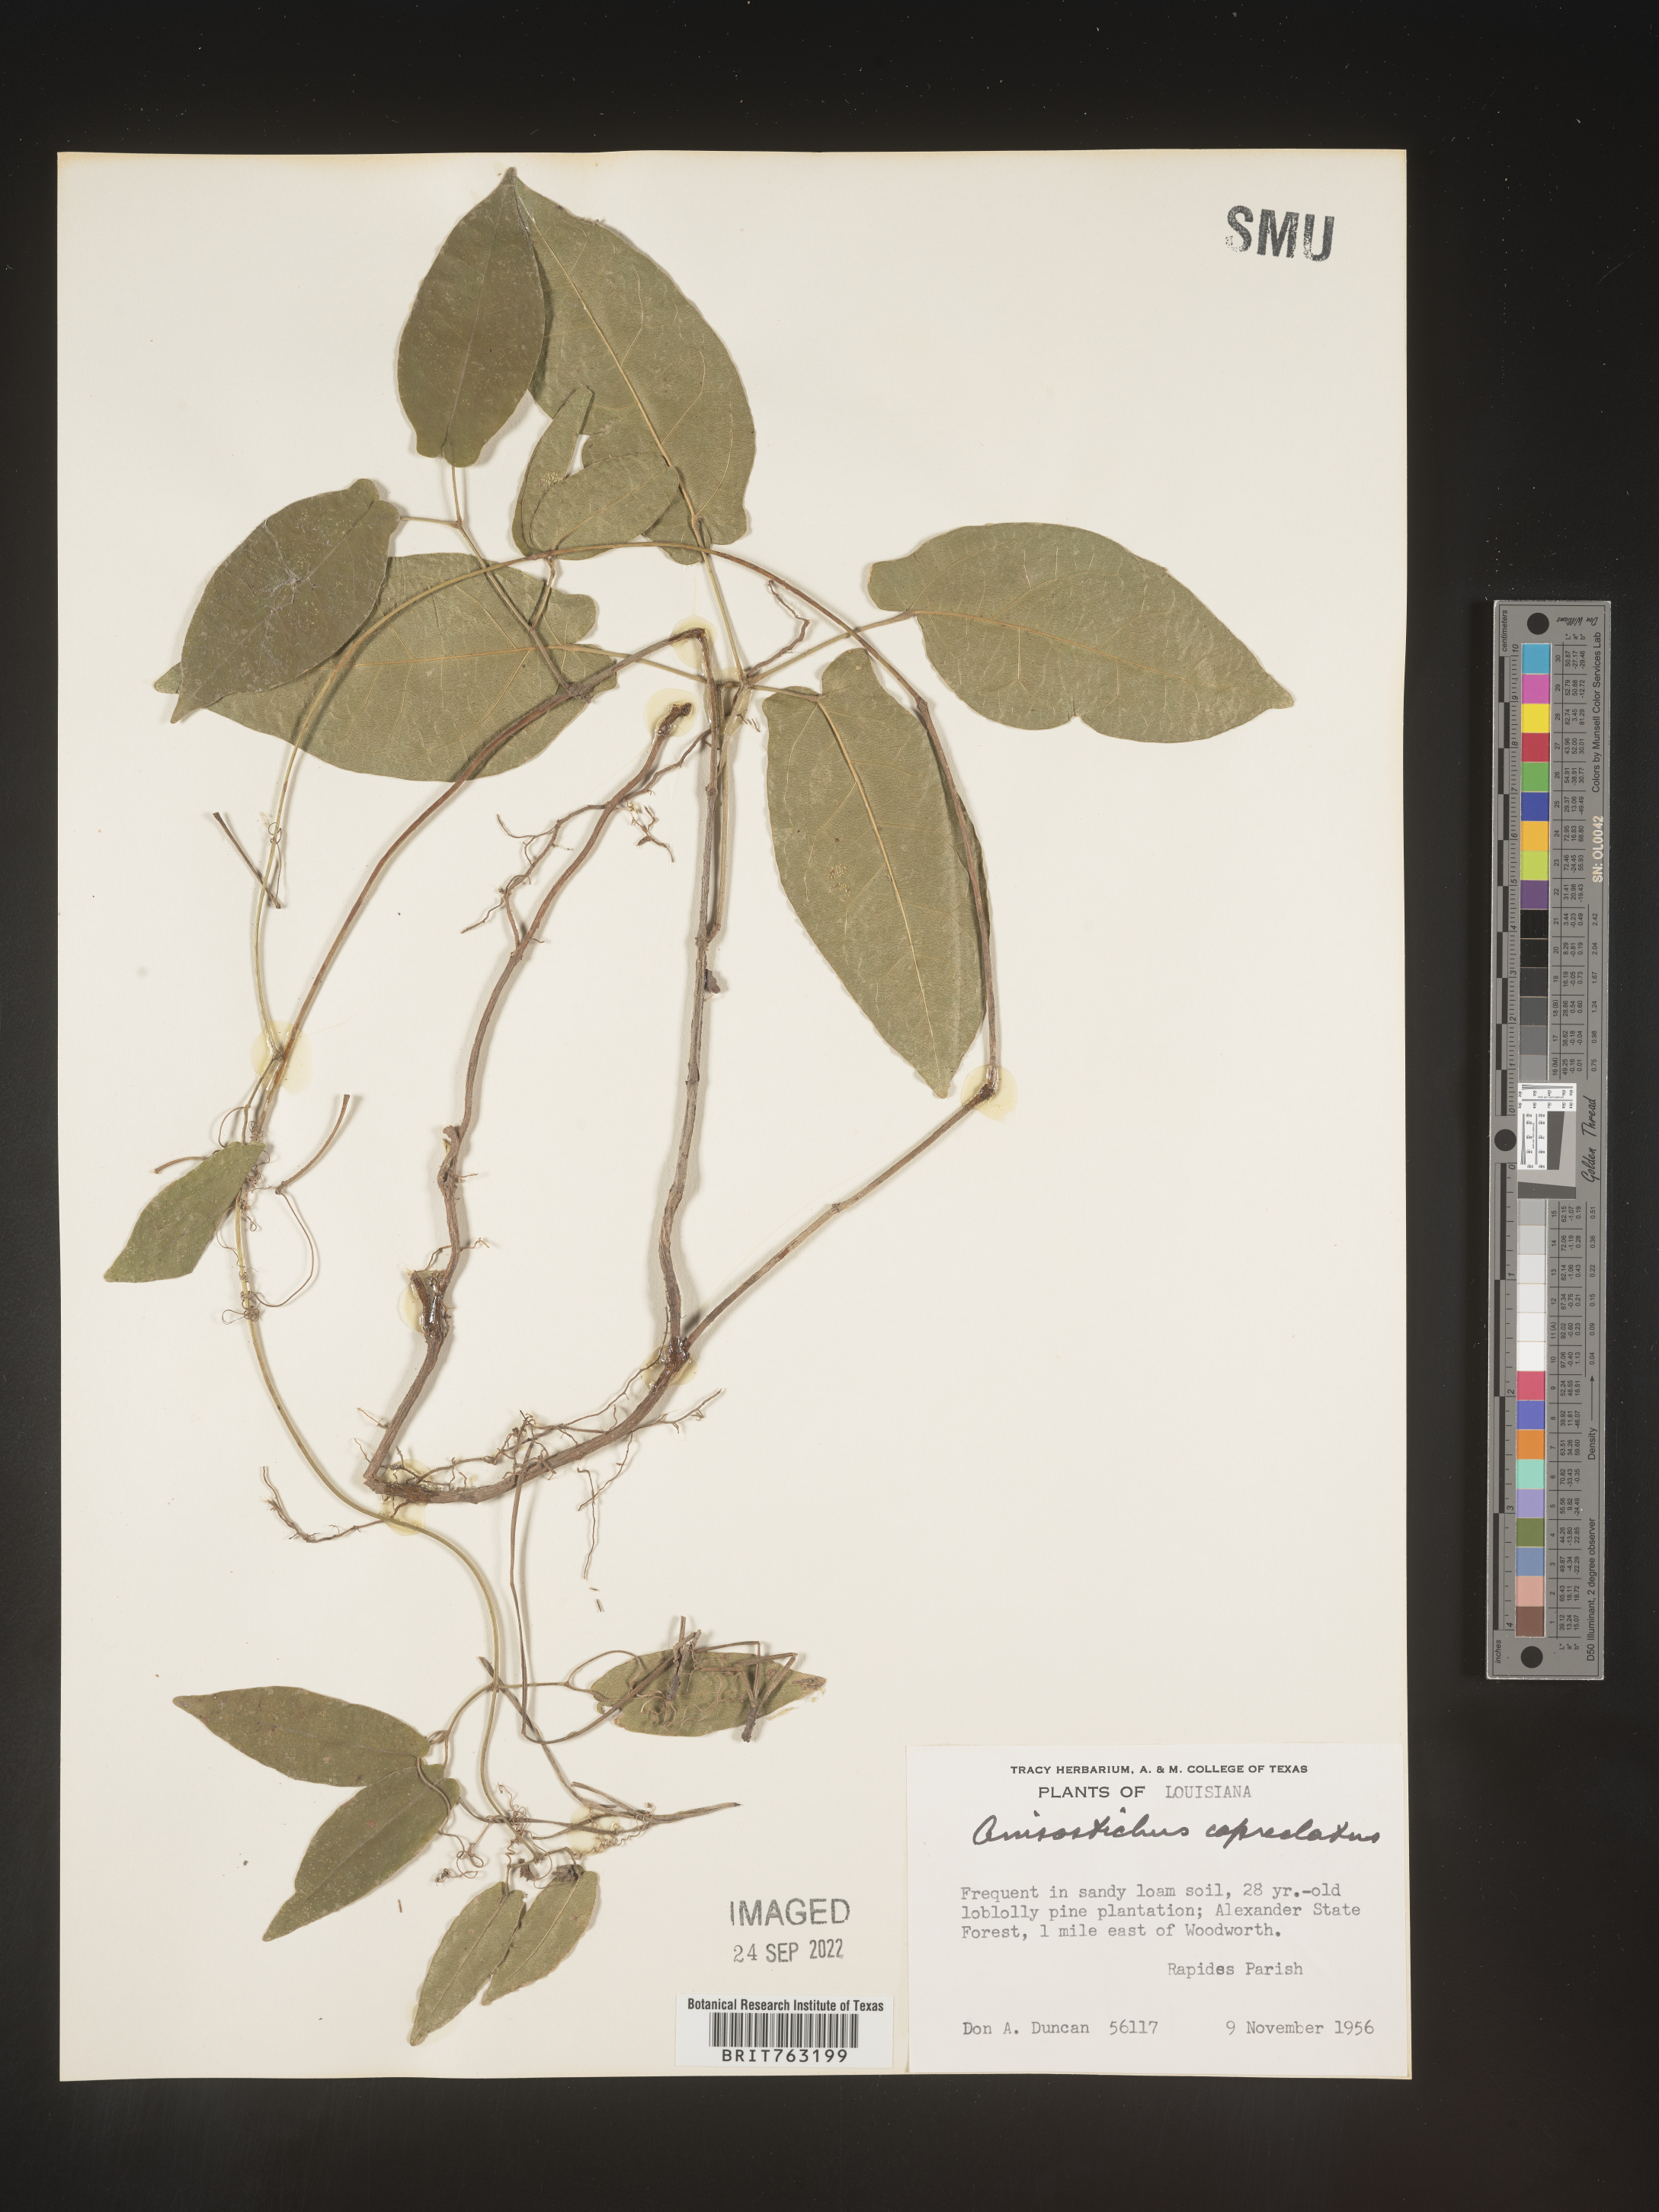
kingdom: Plantae
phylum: Tracheophyta
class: Magnoliopsida
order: Lamiales
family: Bignoniaceae
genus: Bignonia
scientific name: Bignonia capreolata
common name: Crossvine
